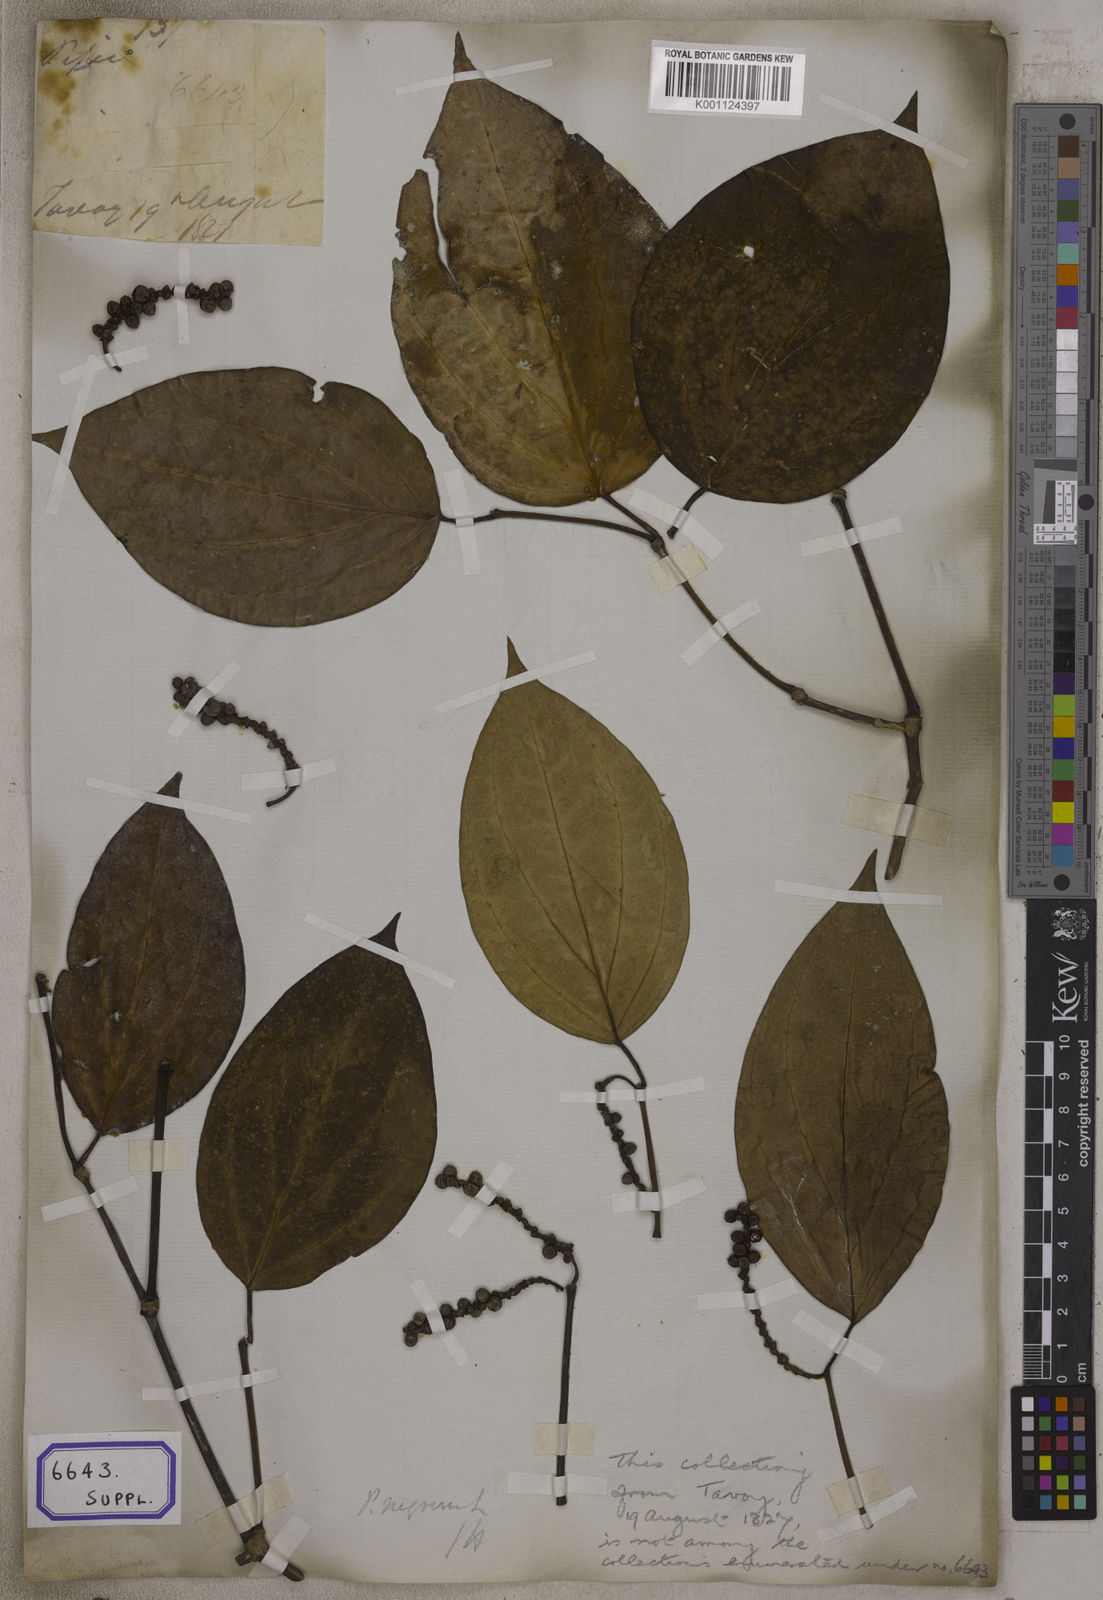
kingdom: Plantae
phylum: Tracheophyta
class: Magnoliopsida
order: Piperales
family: Piperaceae
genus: Piper
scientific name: Piper
